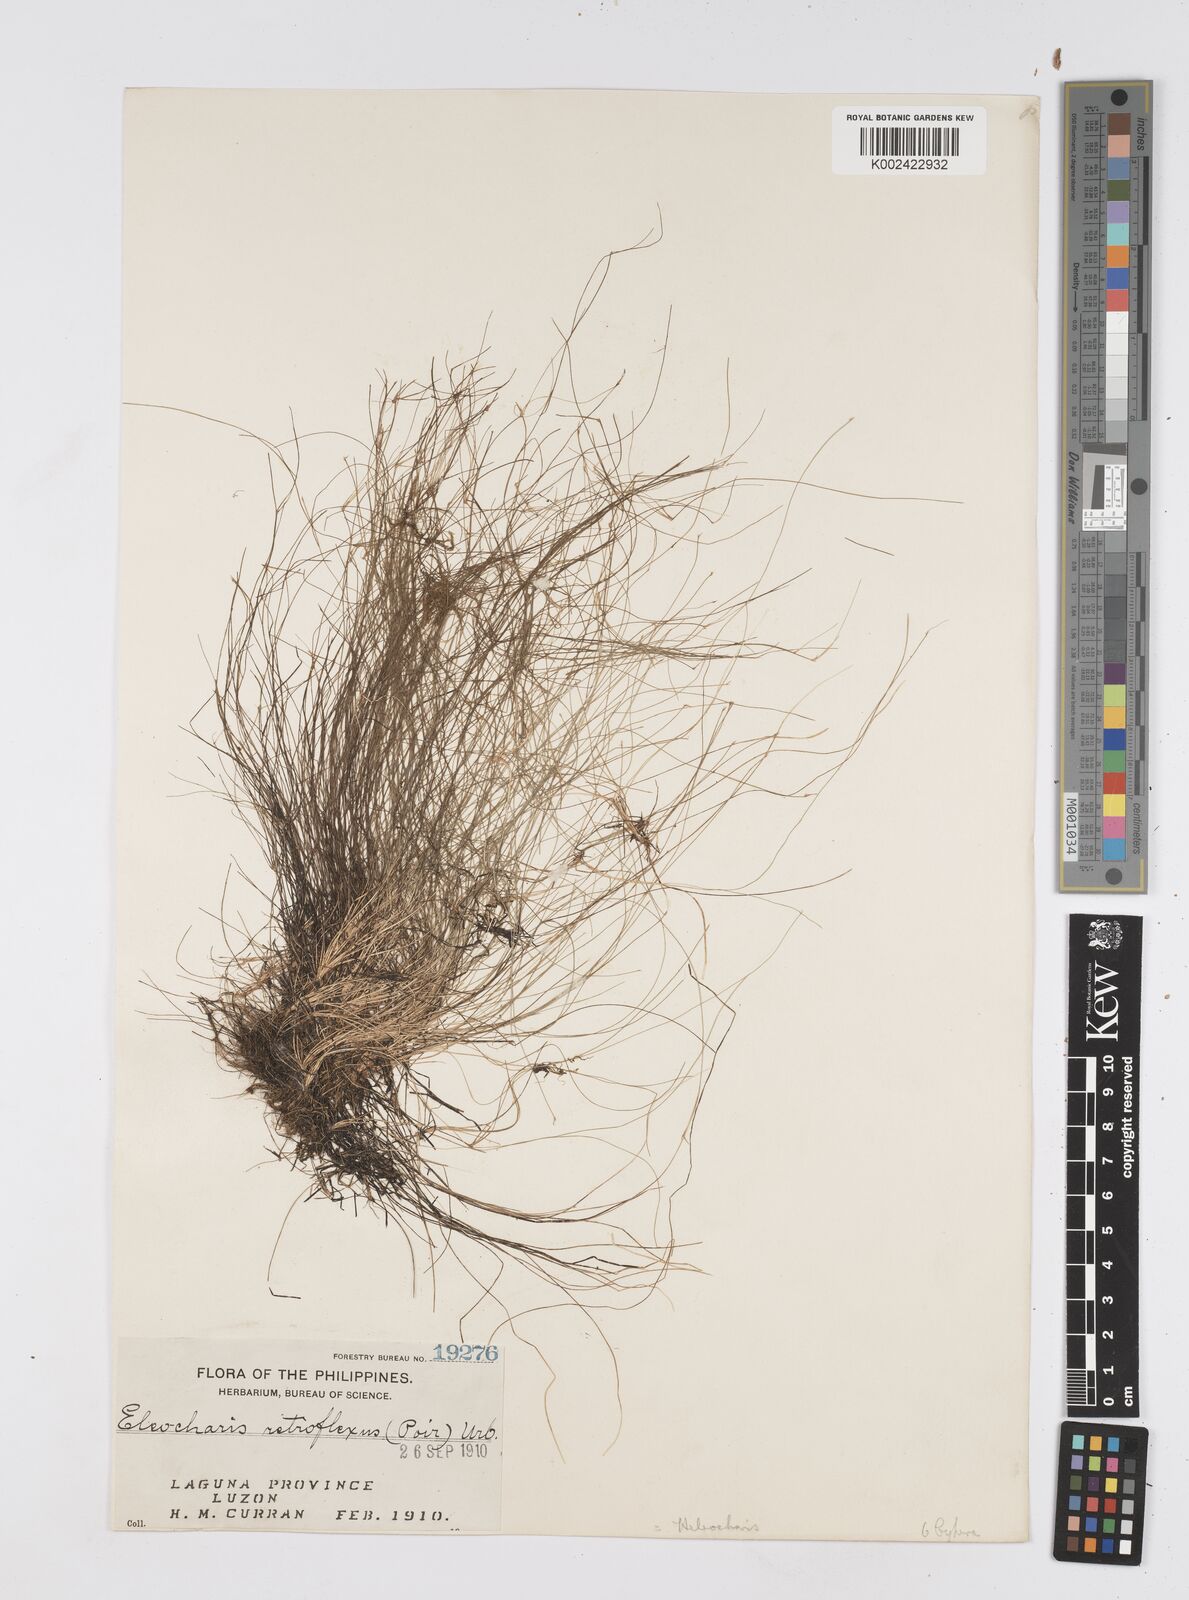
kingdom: Plantae
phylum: Tracheophyta
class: Liliopsida
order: Poales
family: Cyperaceae
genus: Eleocharis
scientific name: Eleocharis retroflexa
